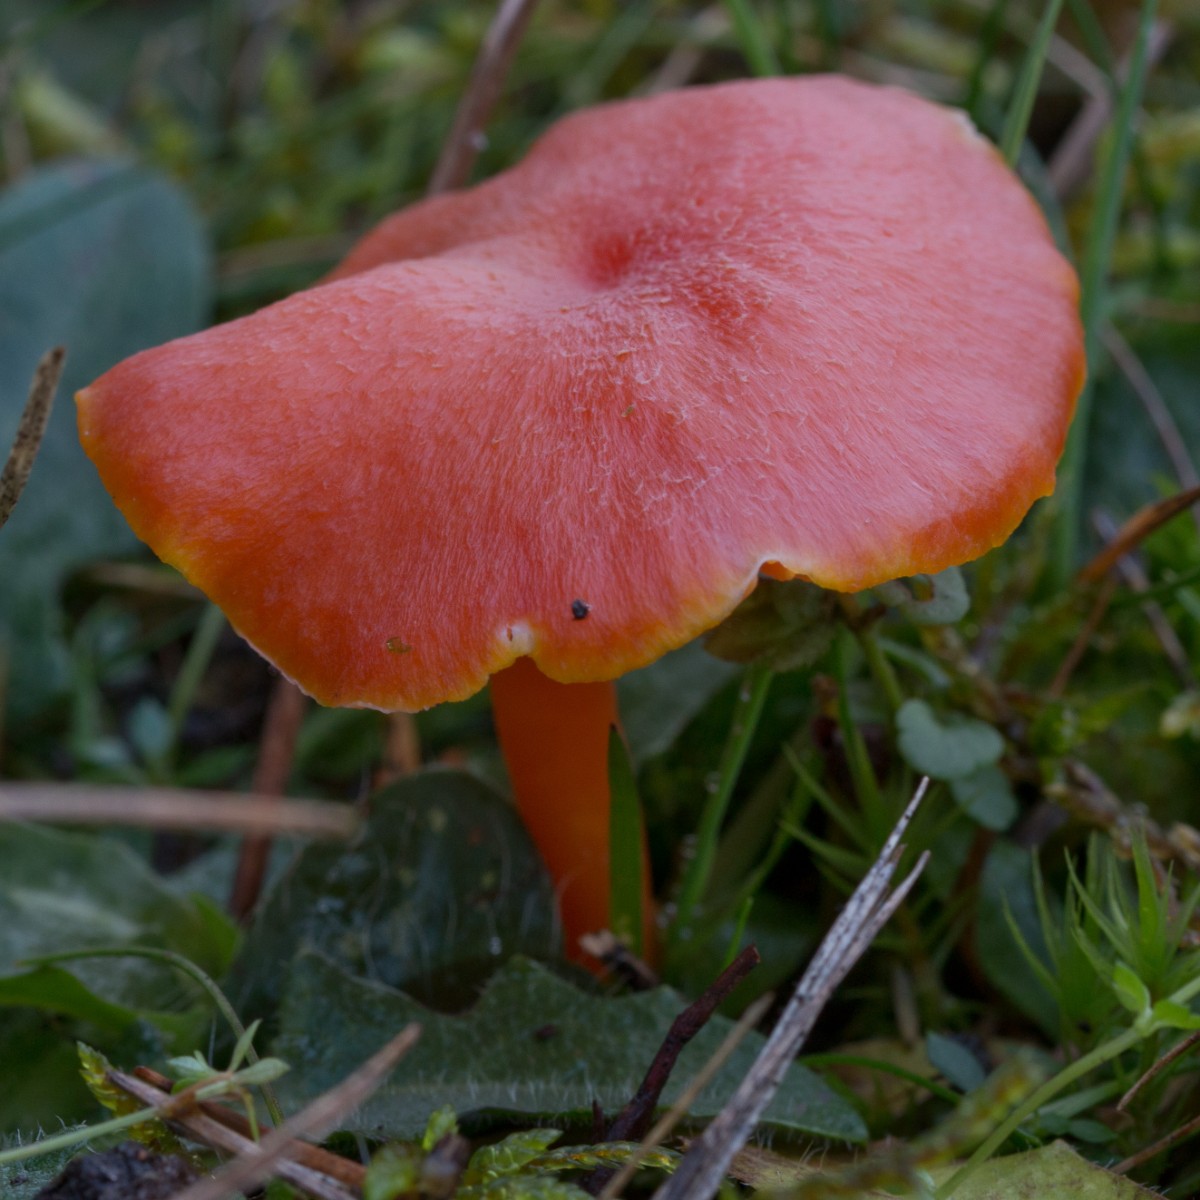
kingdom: Fungi
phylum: Basidiomycota
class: Agaricomycetes
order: Agaricales
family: Hygrophoraceae
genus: Hygrocybe
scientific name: Hygrocybe miniata
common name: mønje-vokshat
